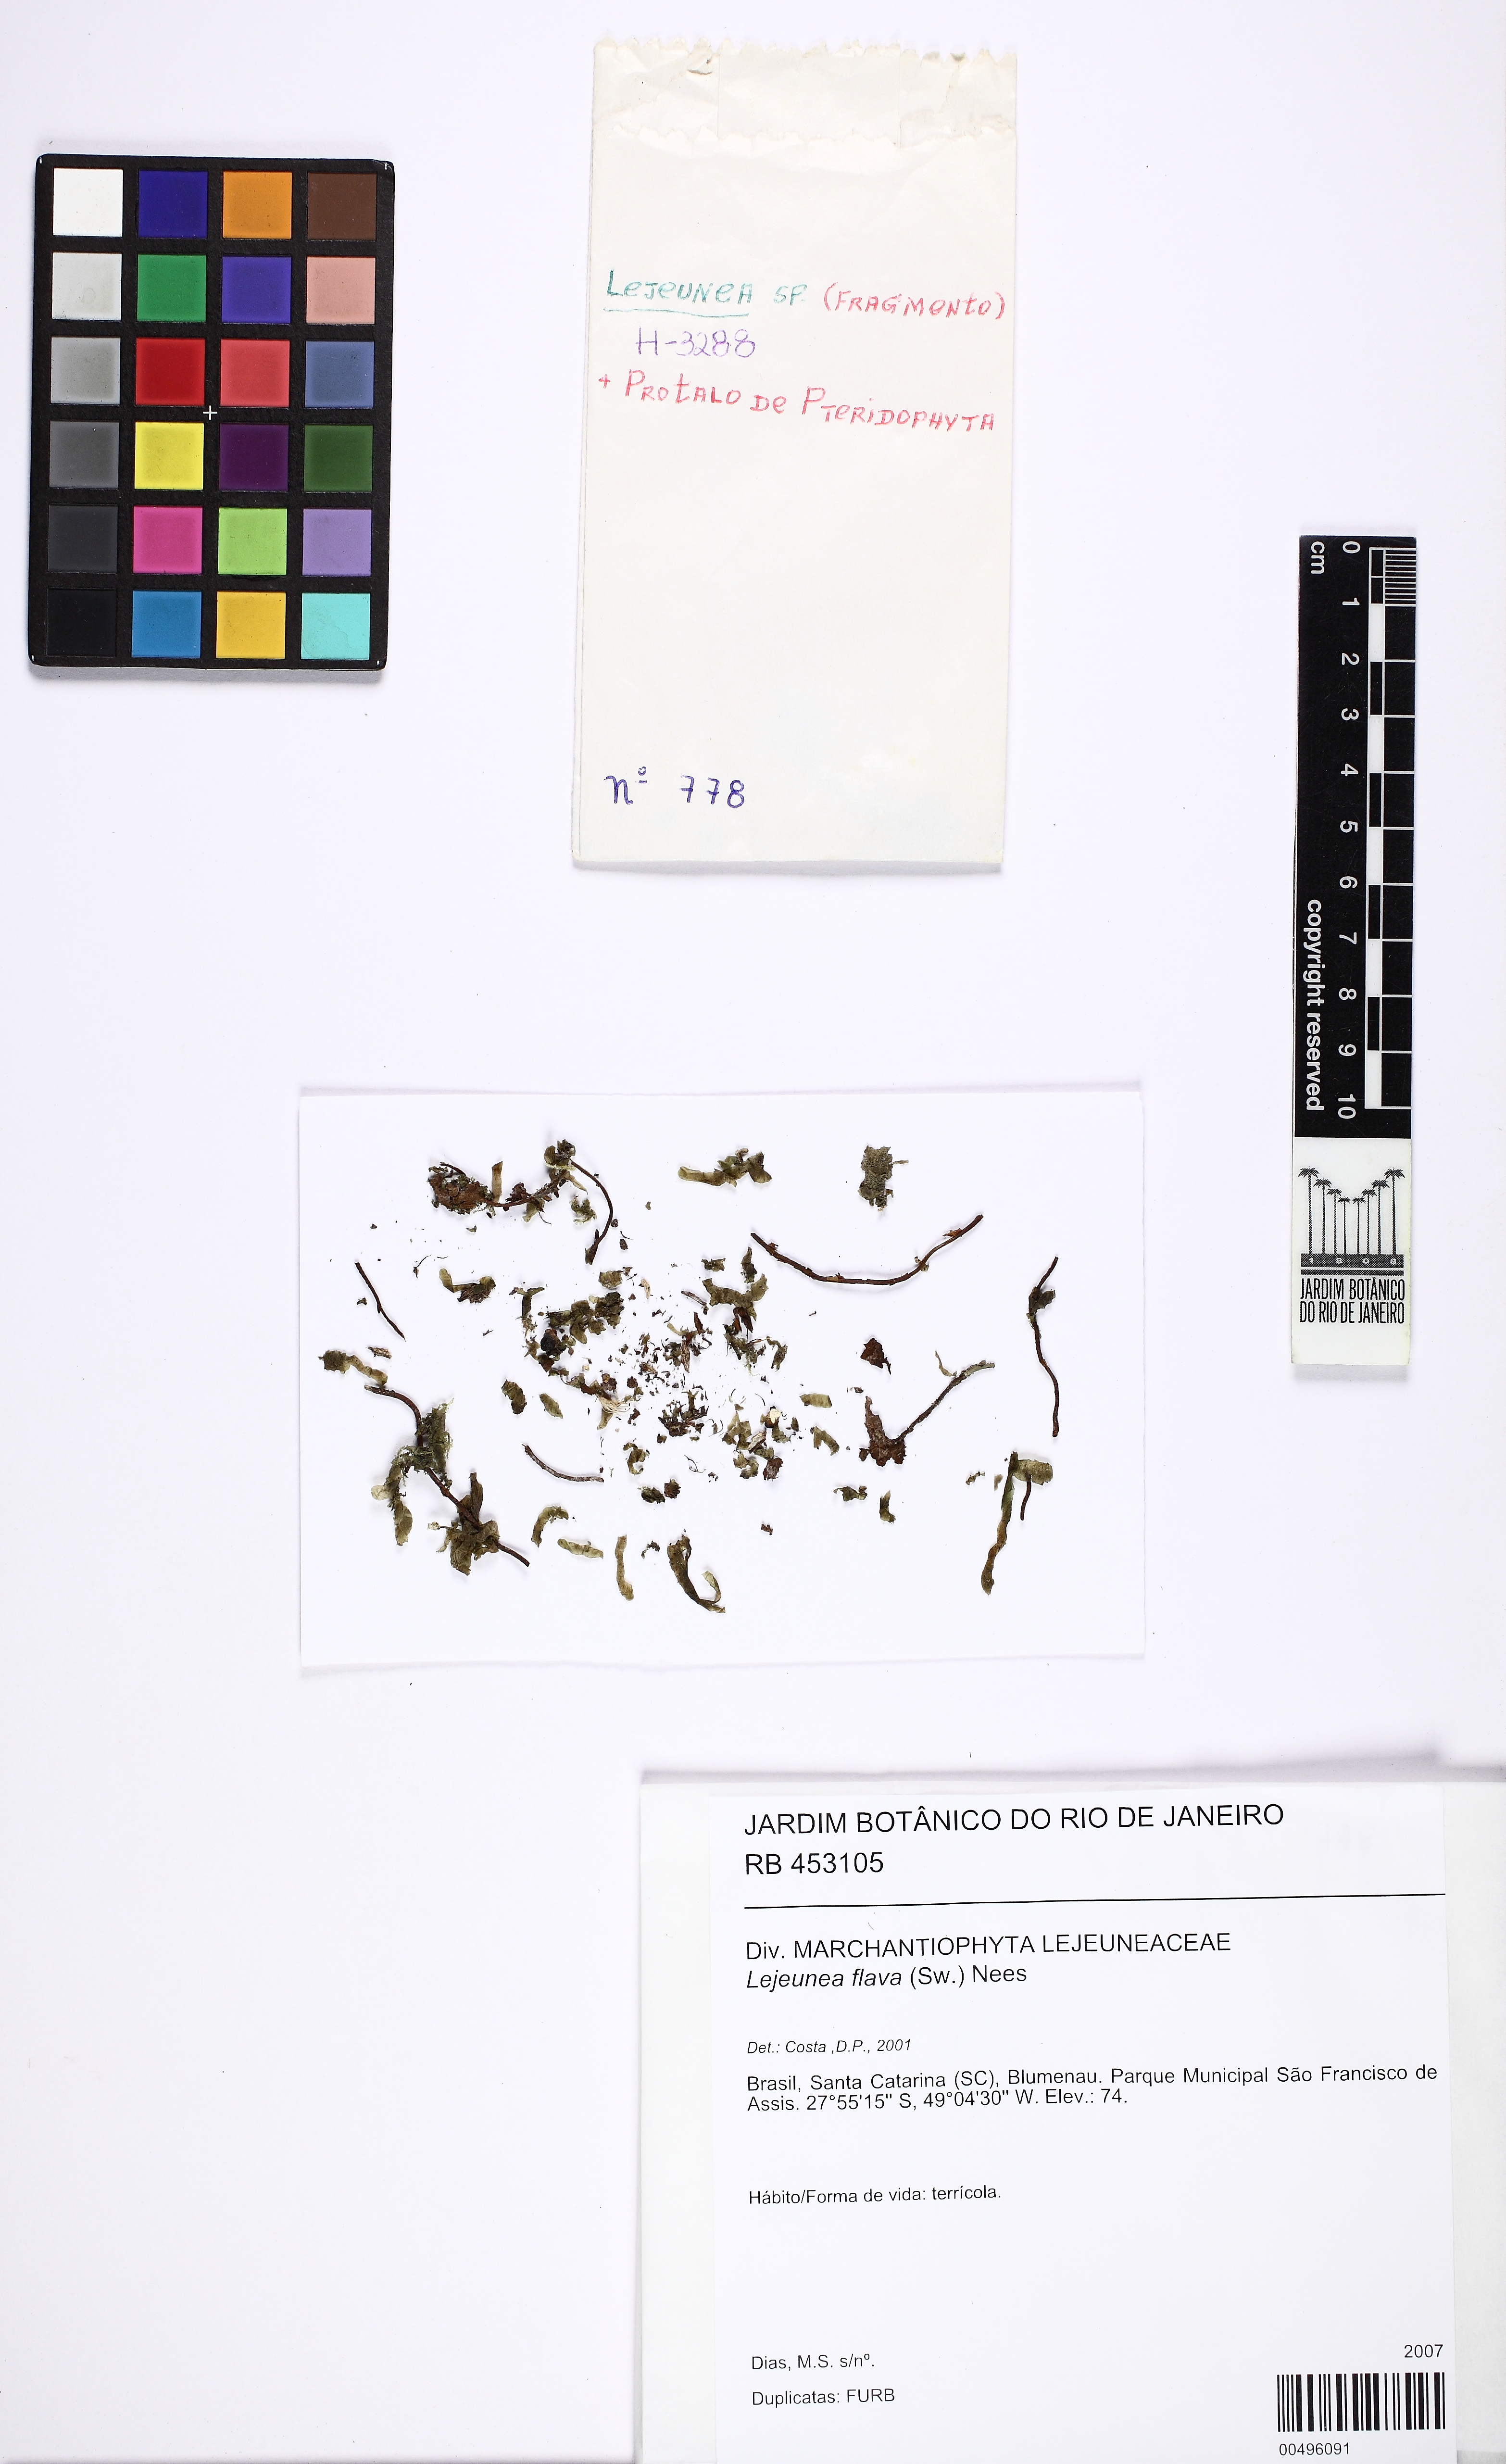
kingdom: Plantae
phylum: Marchantiophyta
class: Jungermanniopsida
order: Porellales
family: Lejeuneaceae
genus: Lejeunea
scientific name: Lejeunea flava
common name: Yellow pouncewort
